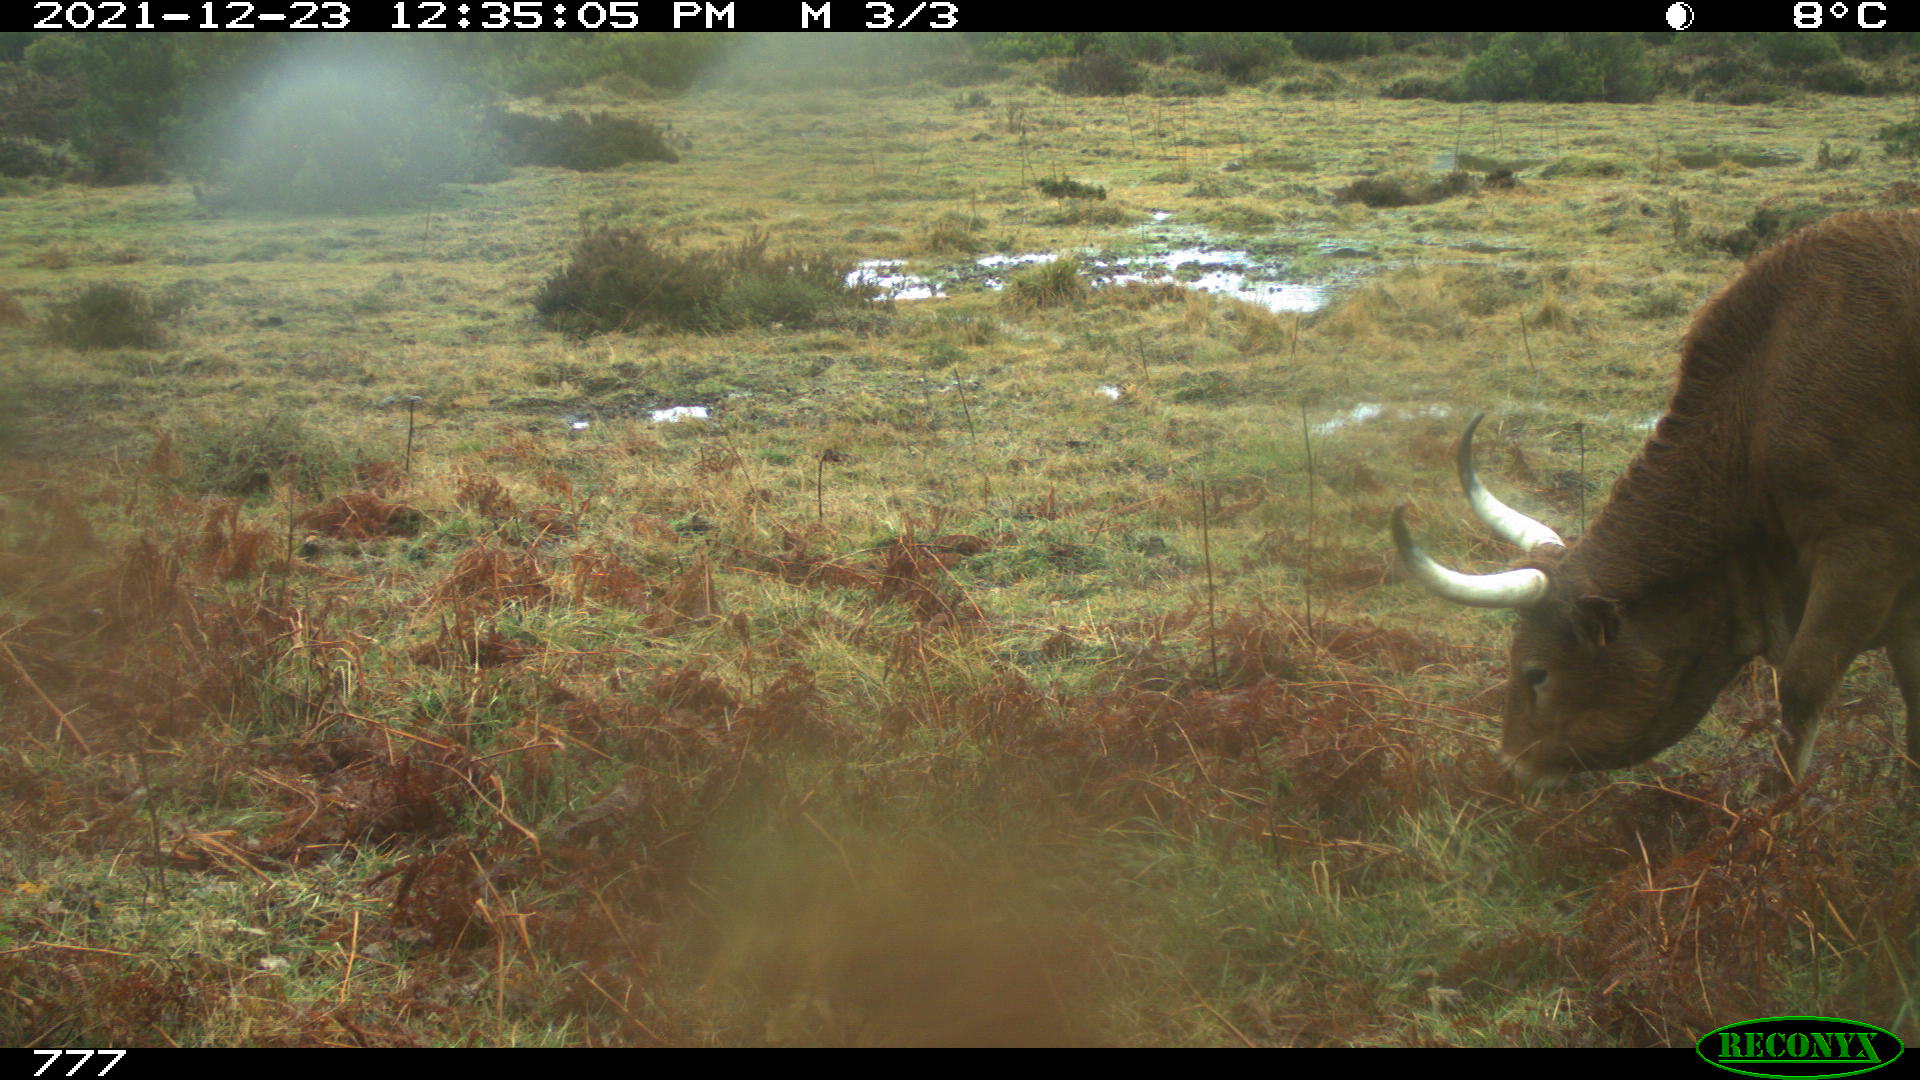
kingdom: Animalia
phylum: Chordata
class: Mammalia
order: Artiodactyla
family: Bovidae
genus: Bos
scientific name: Bos taurus
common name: Domesticated cattle
